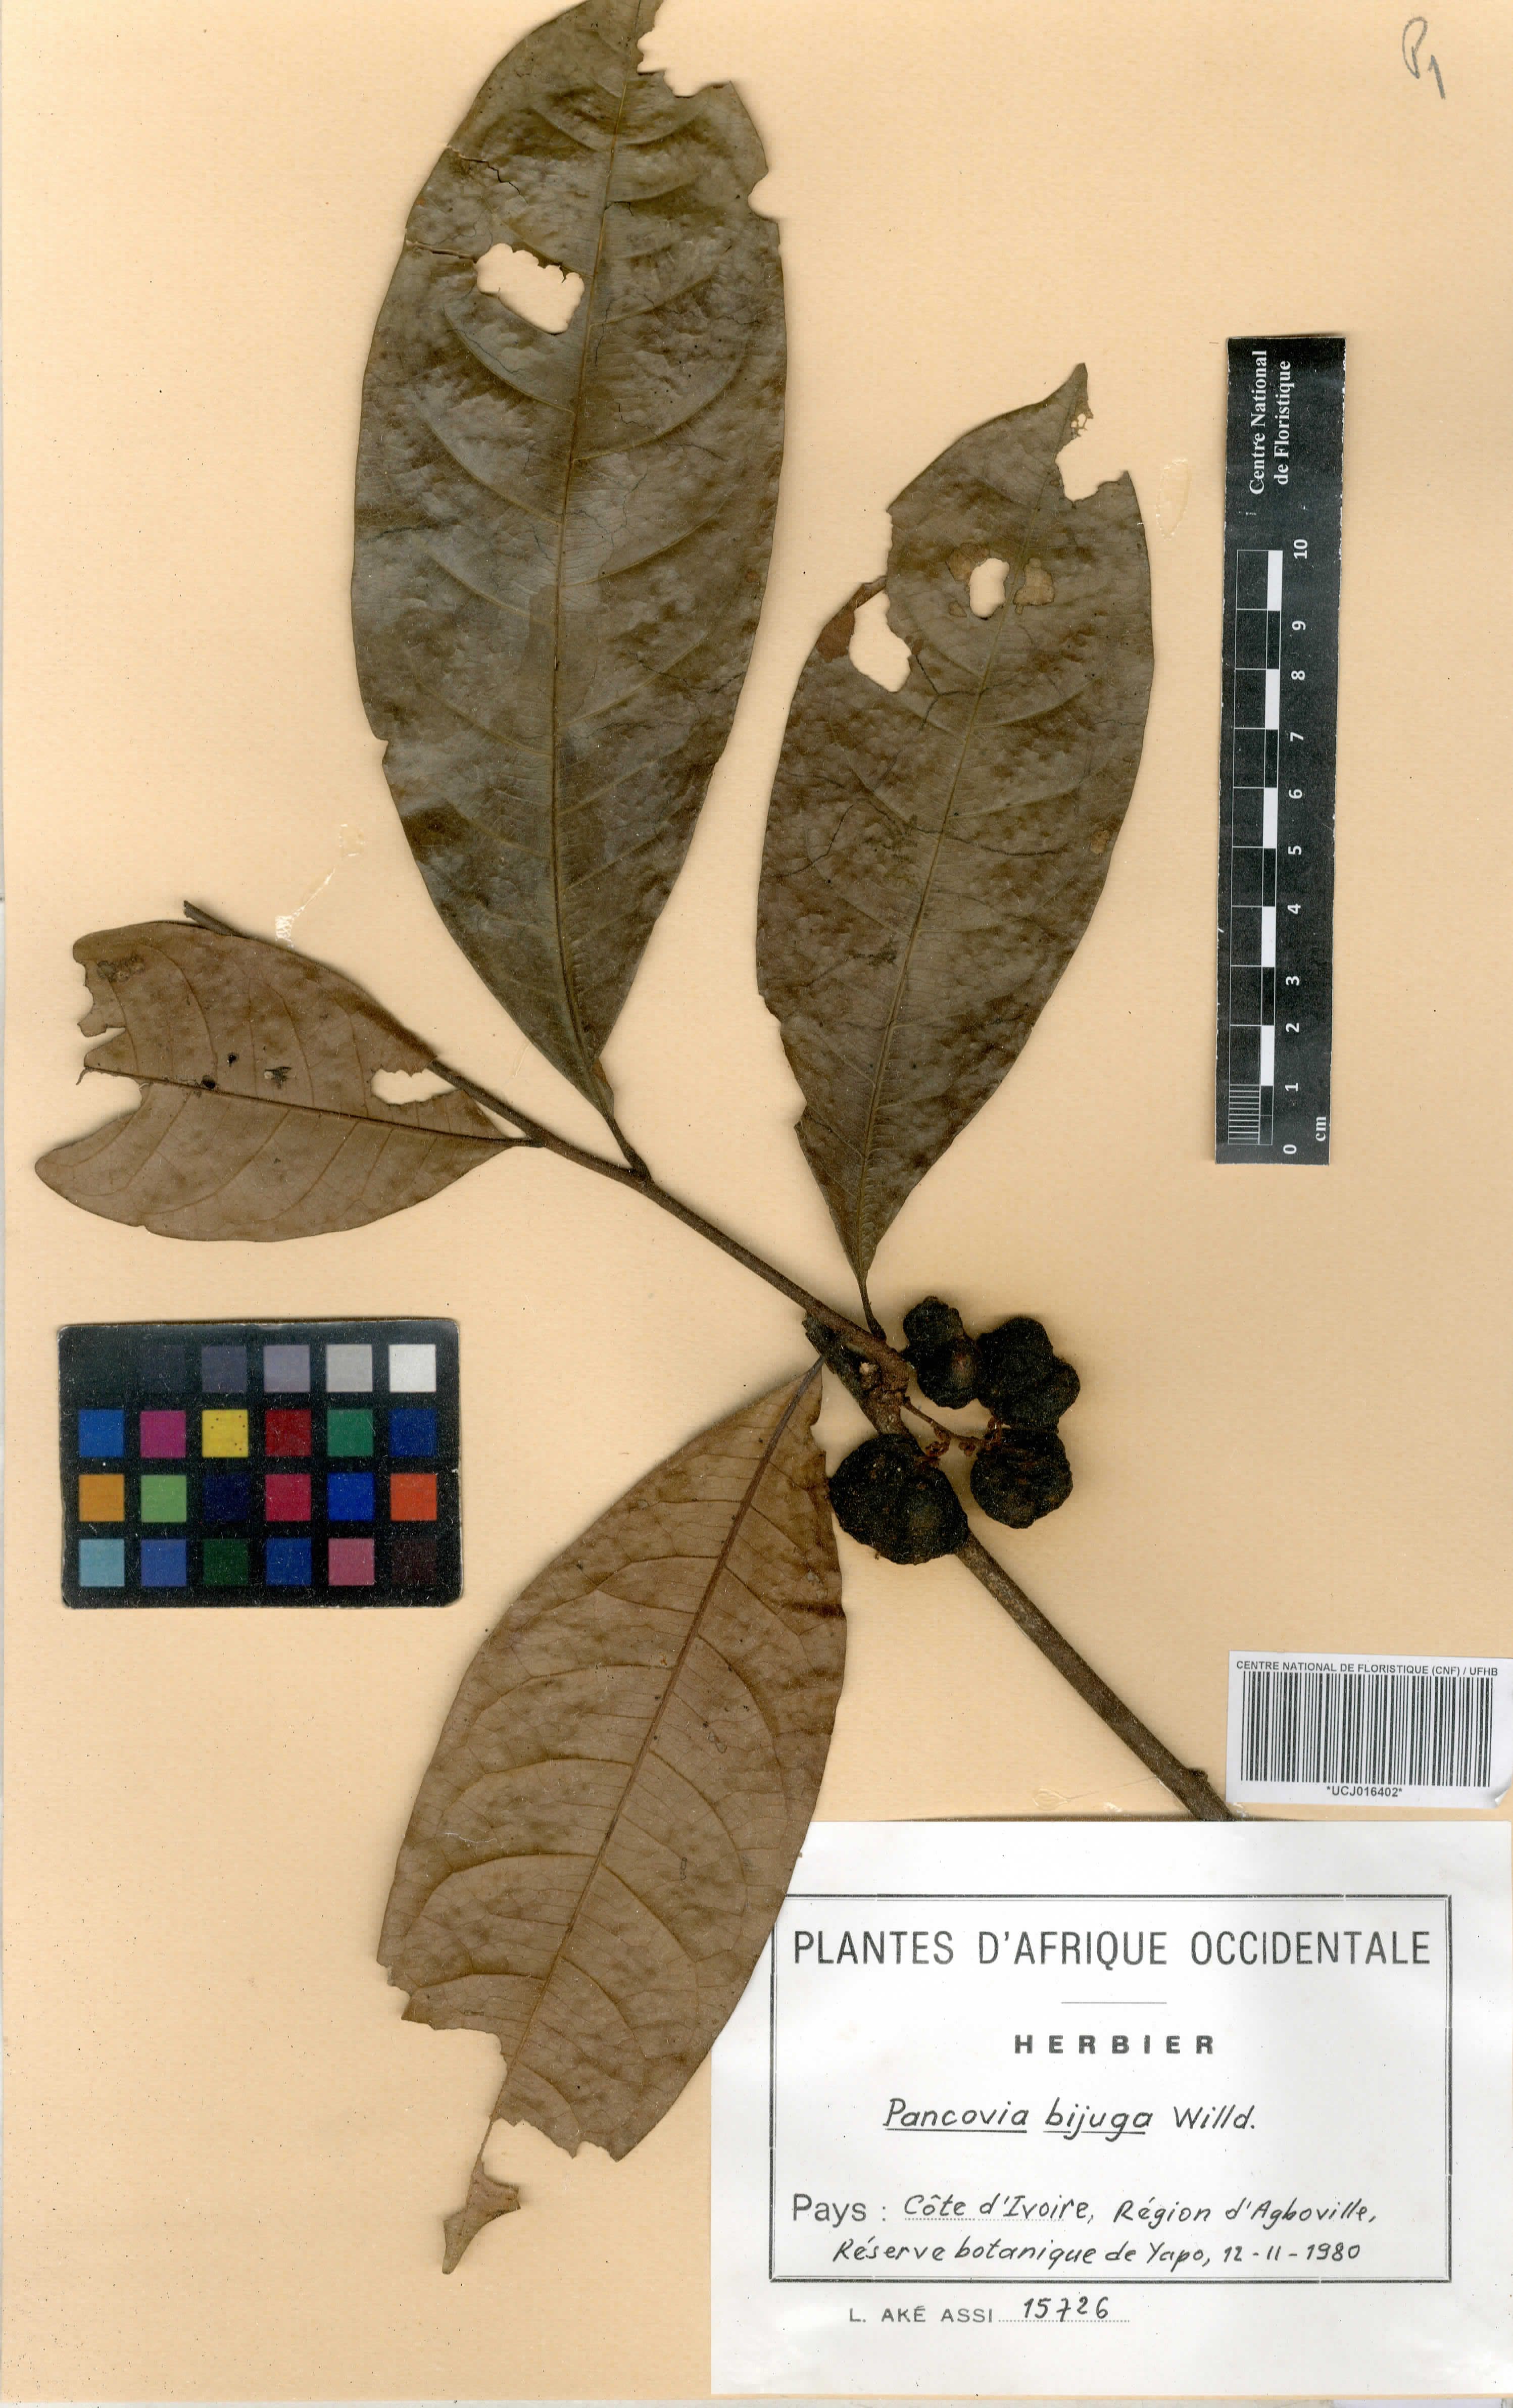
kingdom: Plantae
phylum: Tracheophyta
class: Magnoliopsida
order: Sapindales
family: Sapindaceae
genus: Pancovia
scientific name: Pancovia bijuga
